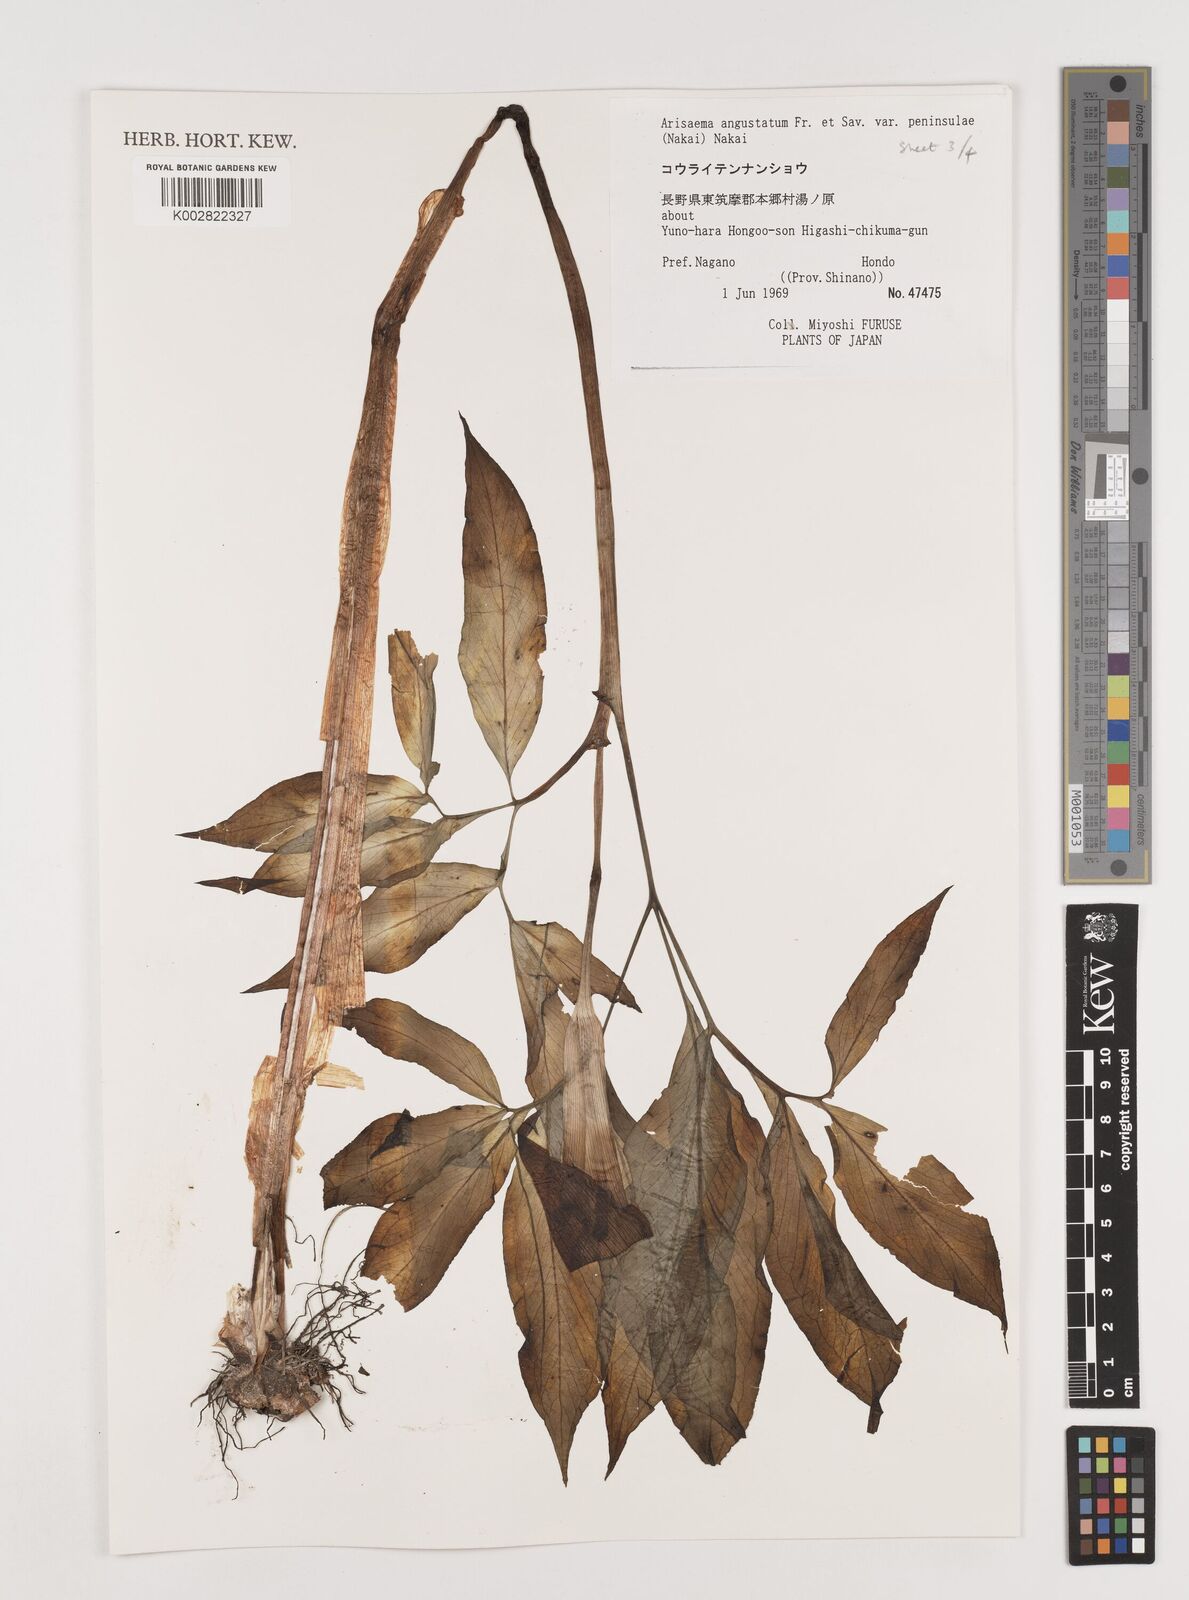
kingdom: Plantae
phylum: Tracheophyta
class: Liliopsida
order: Alismatales
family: Araceae
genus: Arisaema
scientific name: Arisaema angustatum
